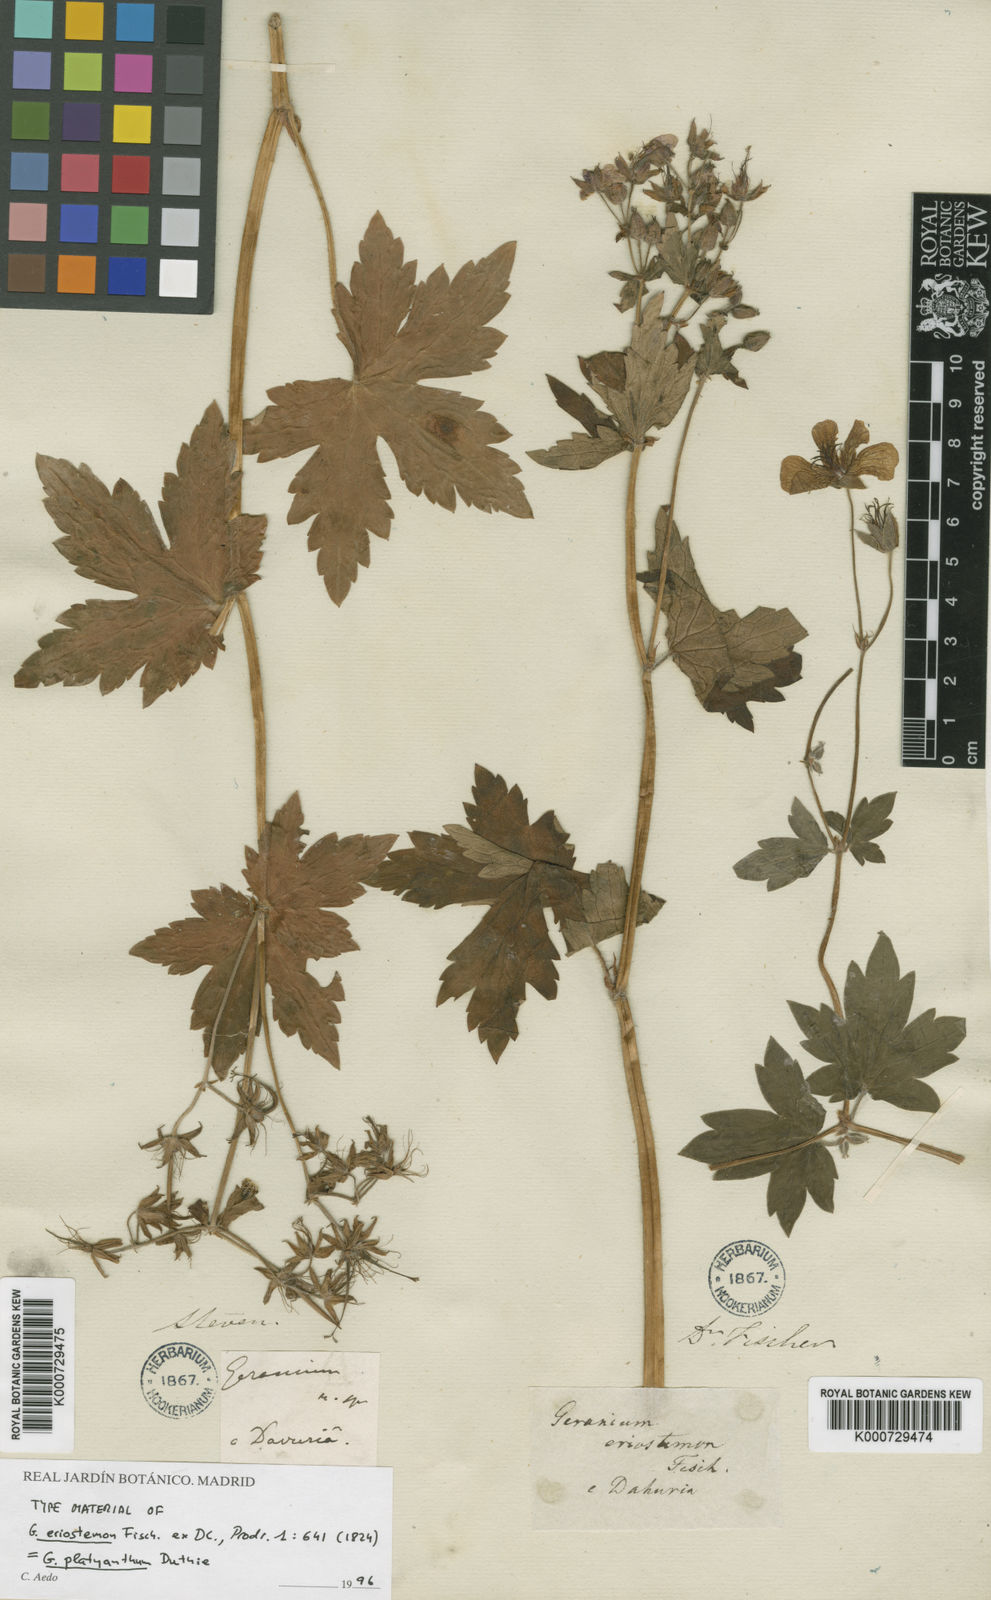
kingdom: Plantae
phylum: Tracheophyta
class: Magnoliopsida
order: Geraniales
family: Geraniaceae
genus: Geranium
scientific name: Geranium platyanthum
